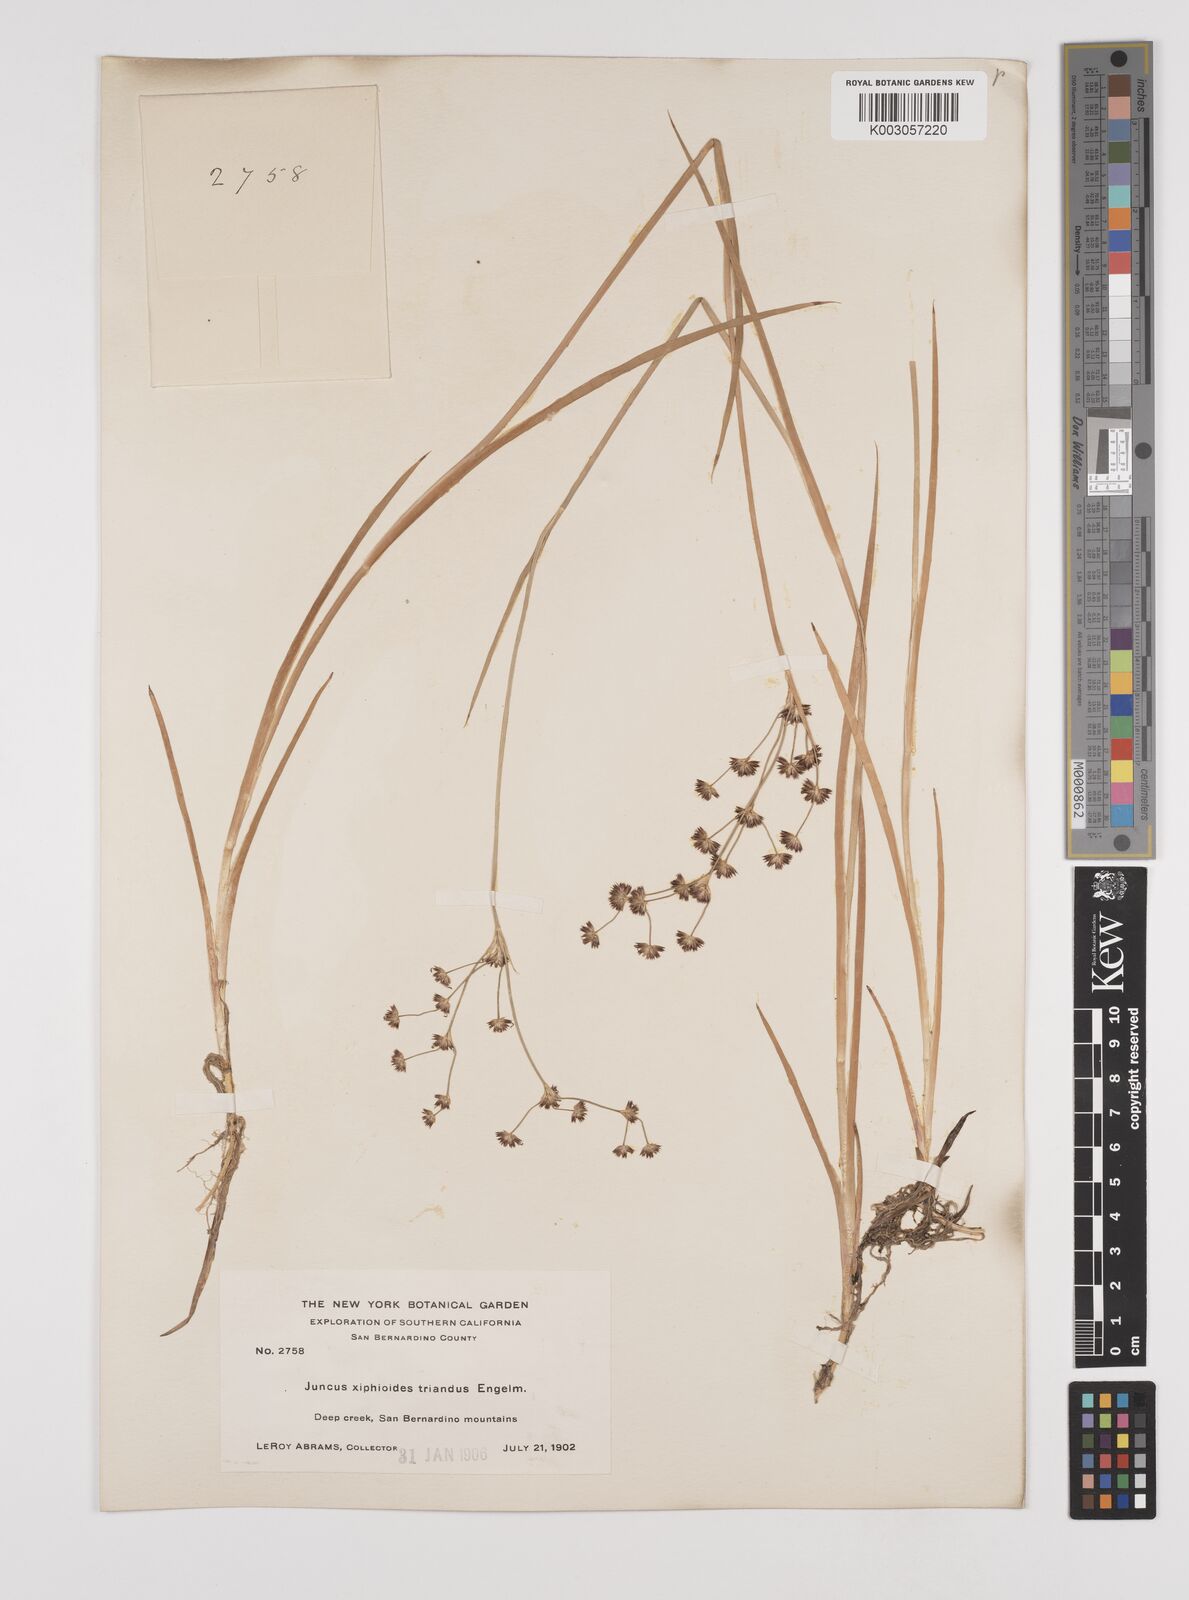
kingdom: Plantae
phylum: Tracheophyta
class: Liliopsida
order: Poales
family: Juncaceae
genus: Juncus
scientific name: Juncus ensifolius
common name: Sword-leaved rush
